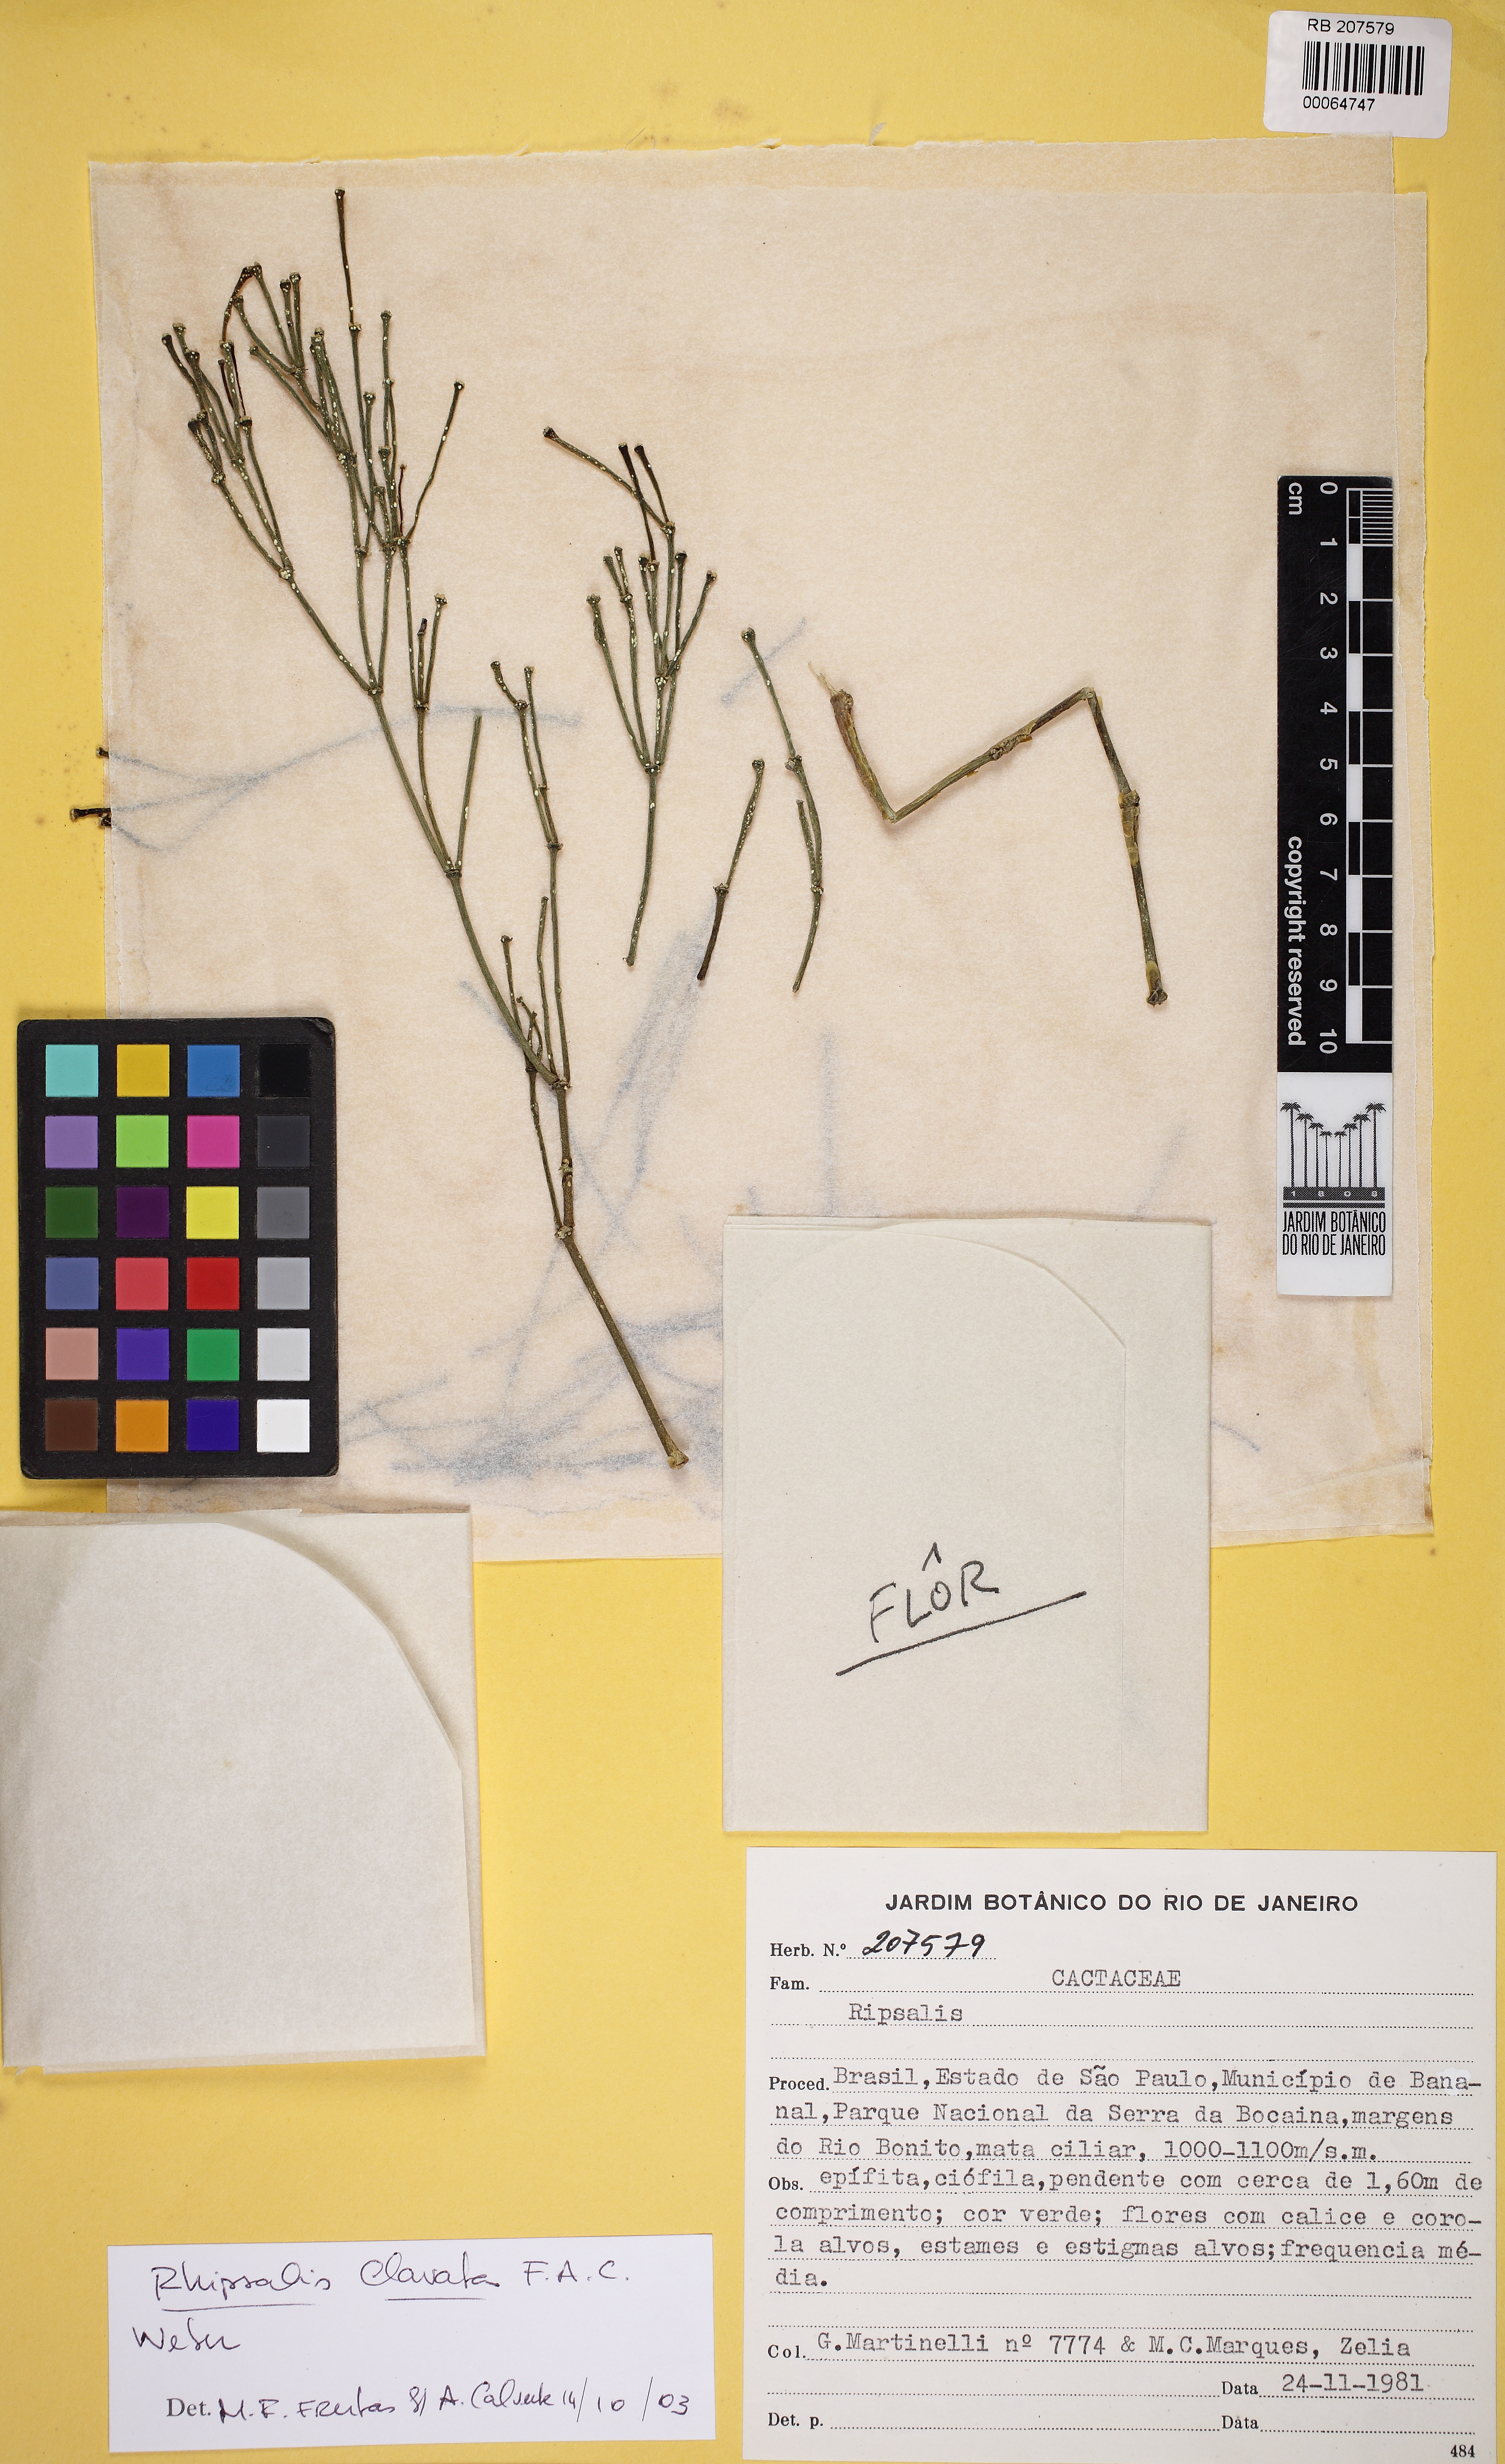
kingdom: Plantae
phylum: Tracheophyta
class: Magnoliopsida
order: Caryophyllales
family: Cactaceae
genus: Rhipsalis
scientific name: Rhipsalis clavata
